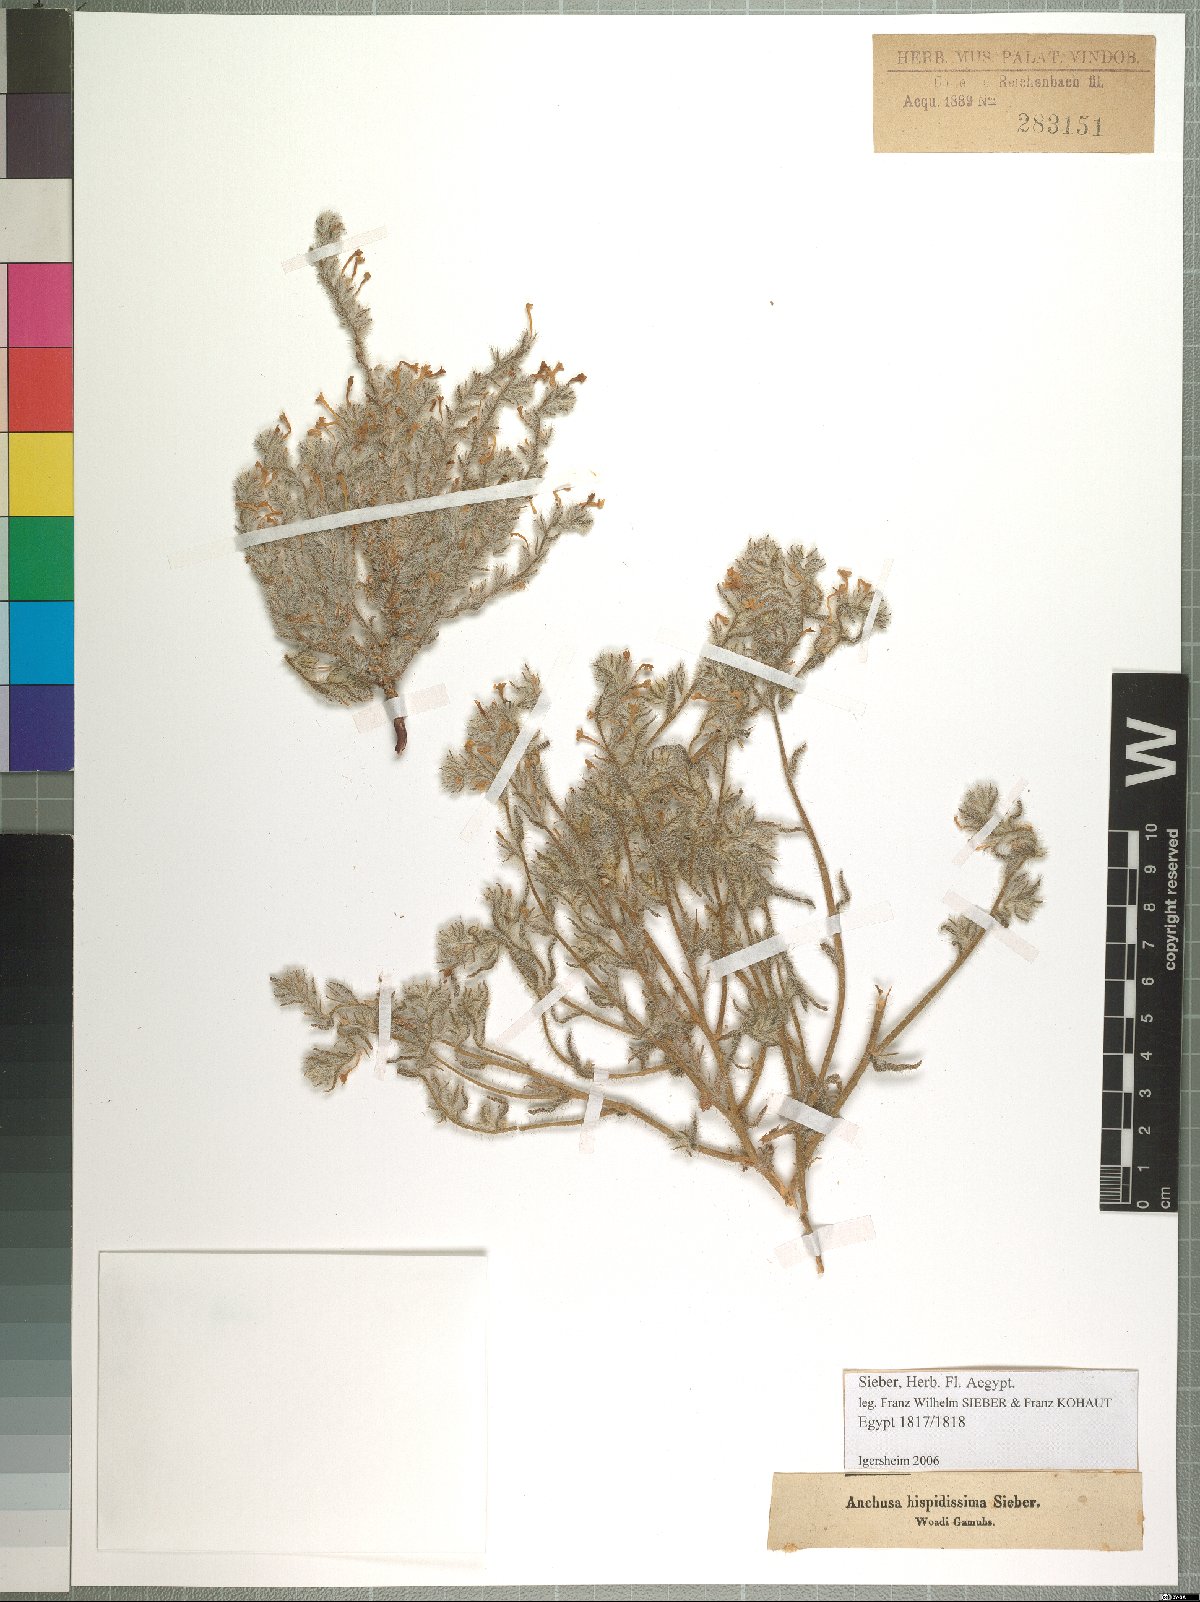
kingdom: Plantae
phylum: Tracheophyta
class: Magnoliopsida
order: Boraginales
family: Boraginaceae
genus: Arnebia
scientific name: Arnebia hispidissima
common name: Arabian-primrose
